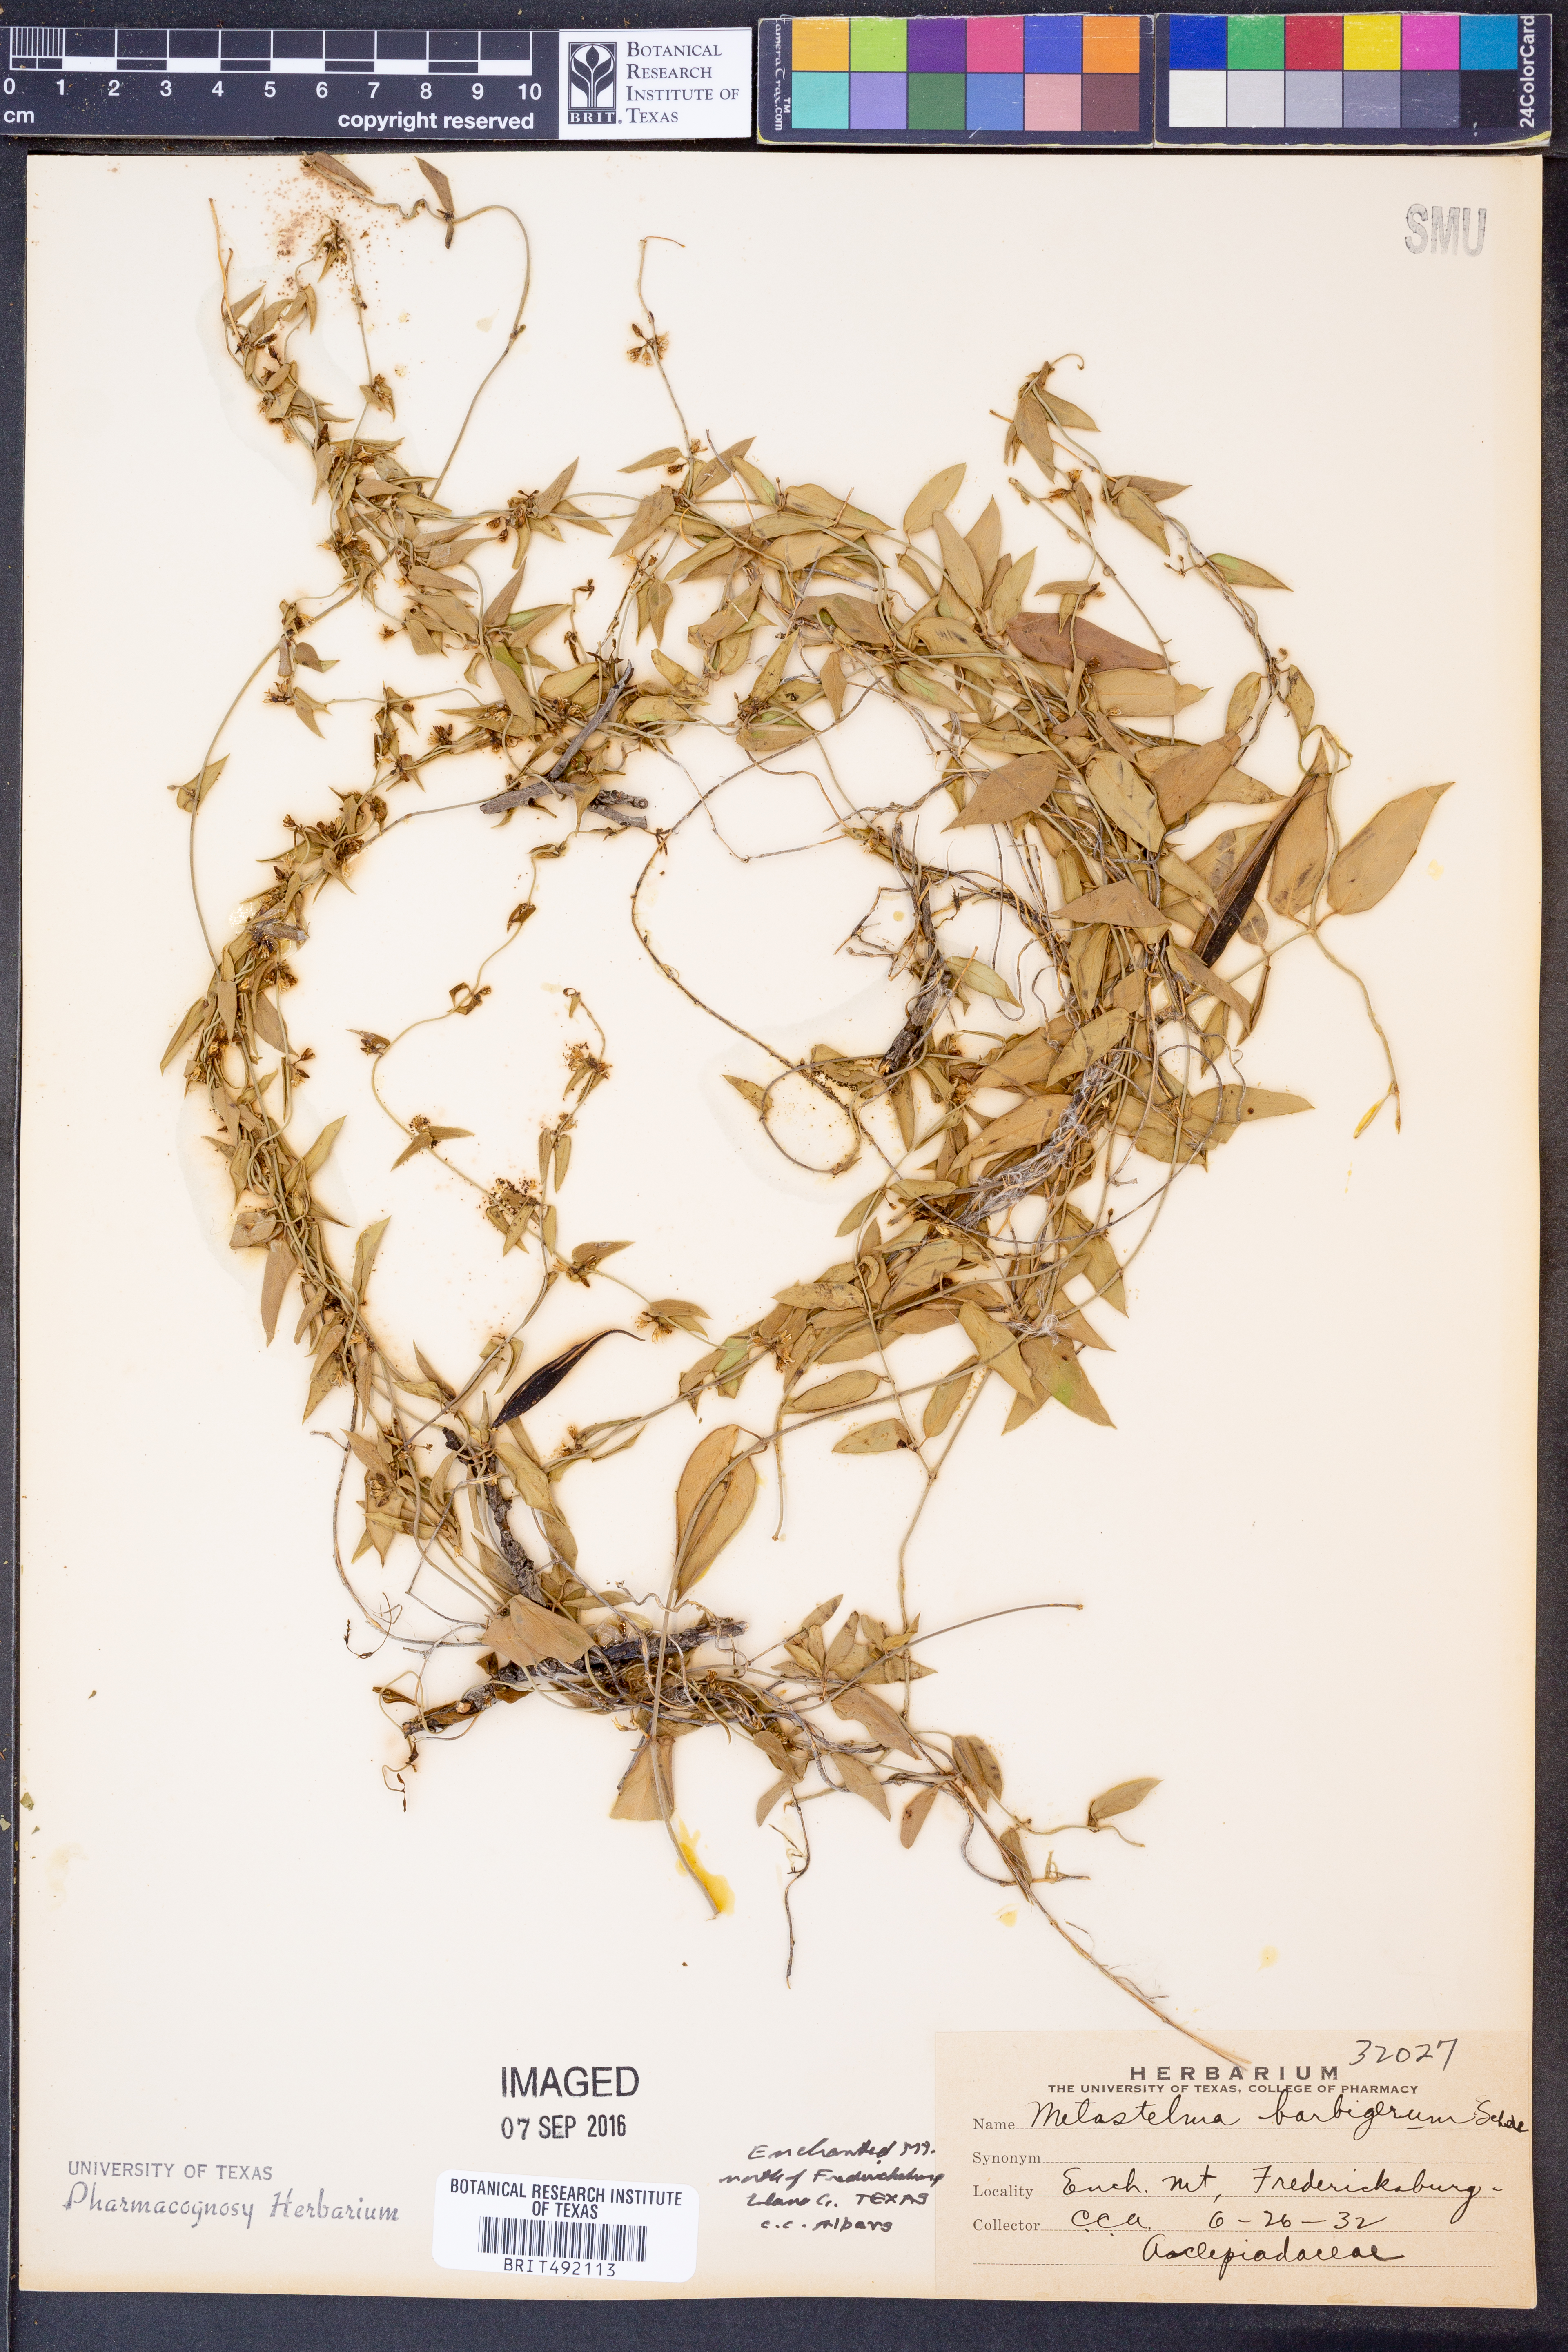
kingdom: Plantae
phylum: Tracheophyta
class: Magnoliopsida
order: Gentianales
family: Apocynaceae
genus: Metastelma
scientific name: Metastelma barbigerum
